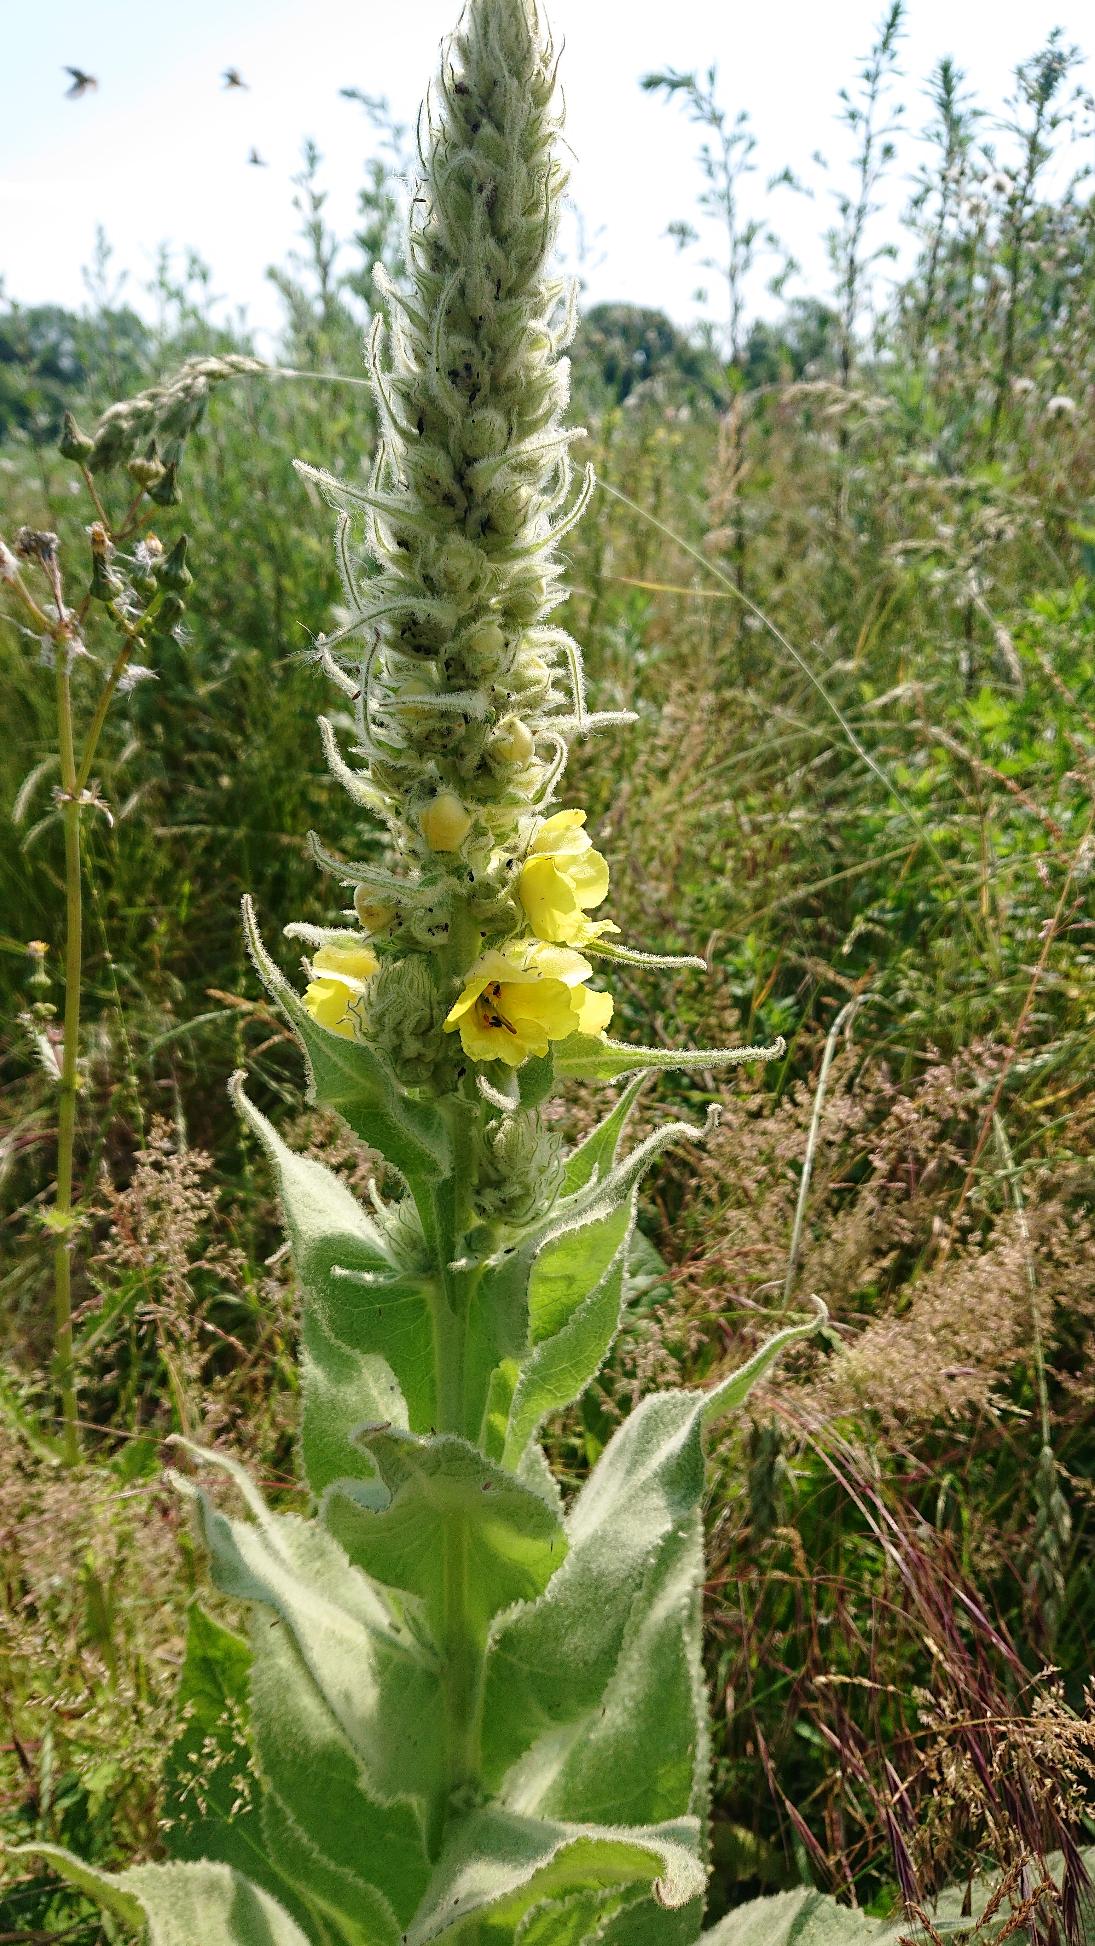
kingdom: Plantae
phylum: Tracheophyta
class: Magnoliopsida
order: Lamiales
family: Scrophulariaceae
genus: Verbascum
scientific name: Verbascum densiflorum
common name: Uldbladet kongelys
